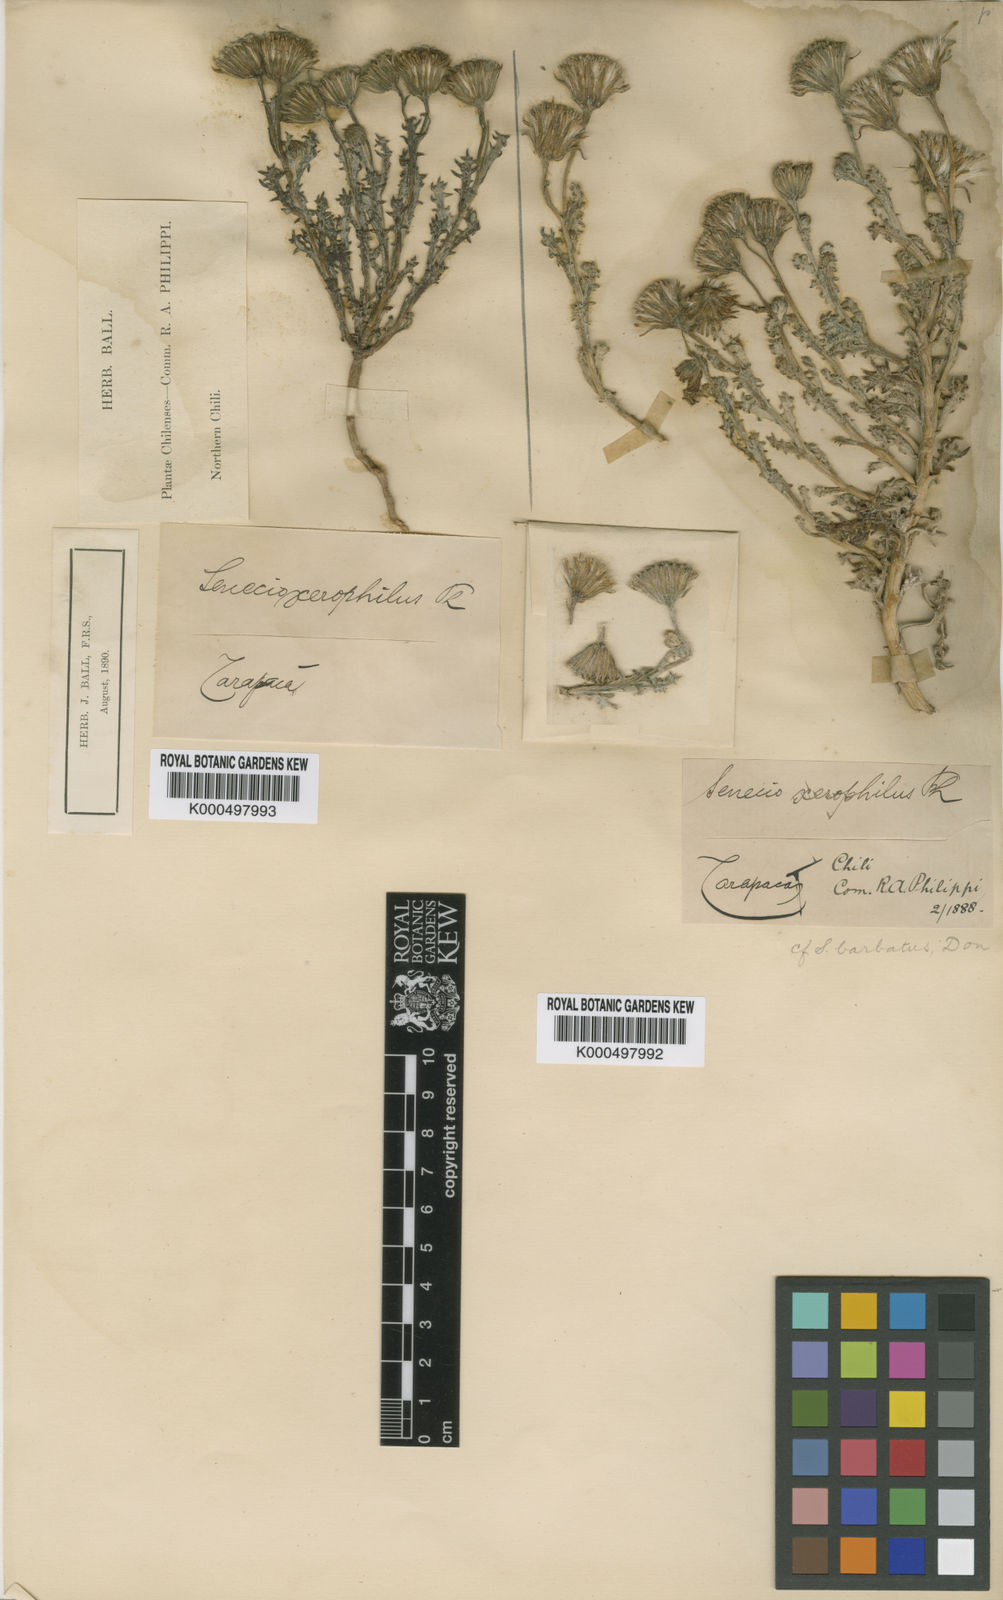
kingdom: Plantae
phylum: Tracheophyta
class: Magnoliopsida
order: Asterales
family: Asteraceae
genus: Senecio
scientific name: Senecio xerophilus
